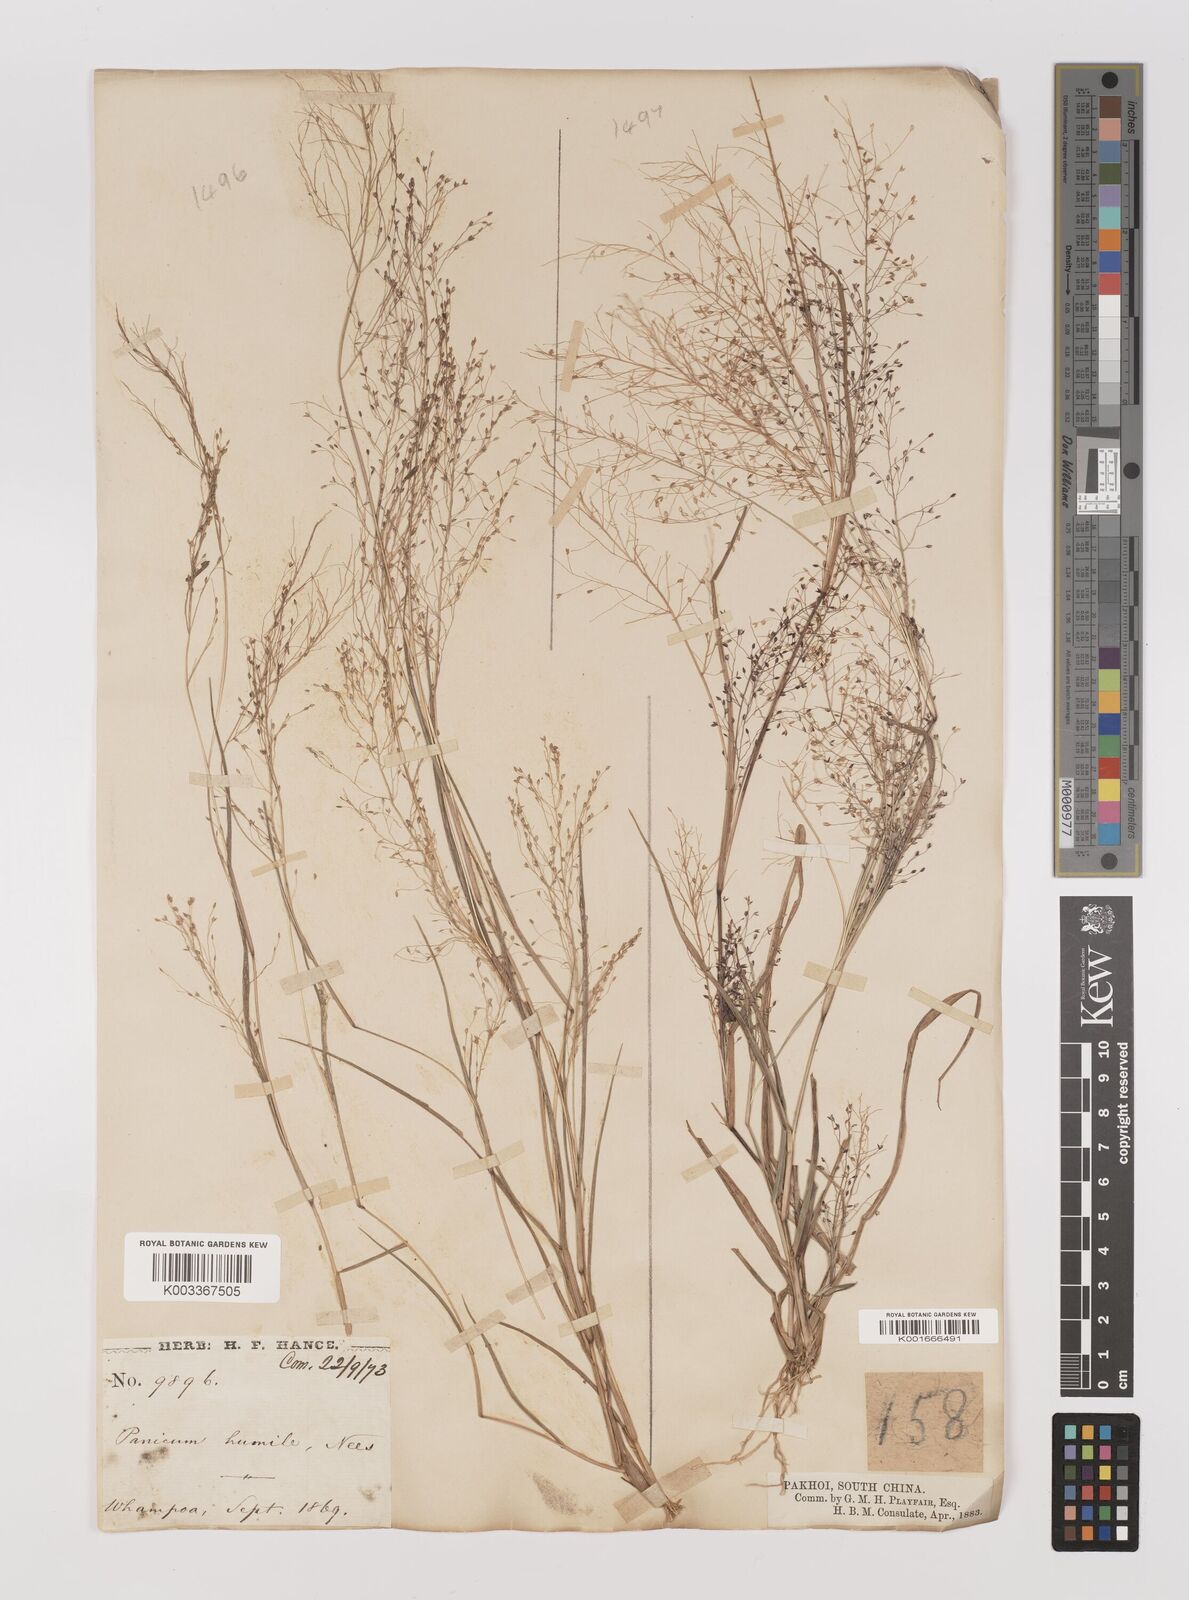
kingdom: Plantae
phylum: Tracheophyta
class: Liliopsida
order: Poales
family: Poaceae
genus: Panicum
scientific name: Panicum
